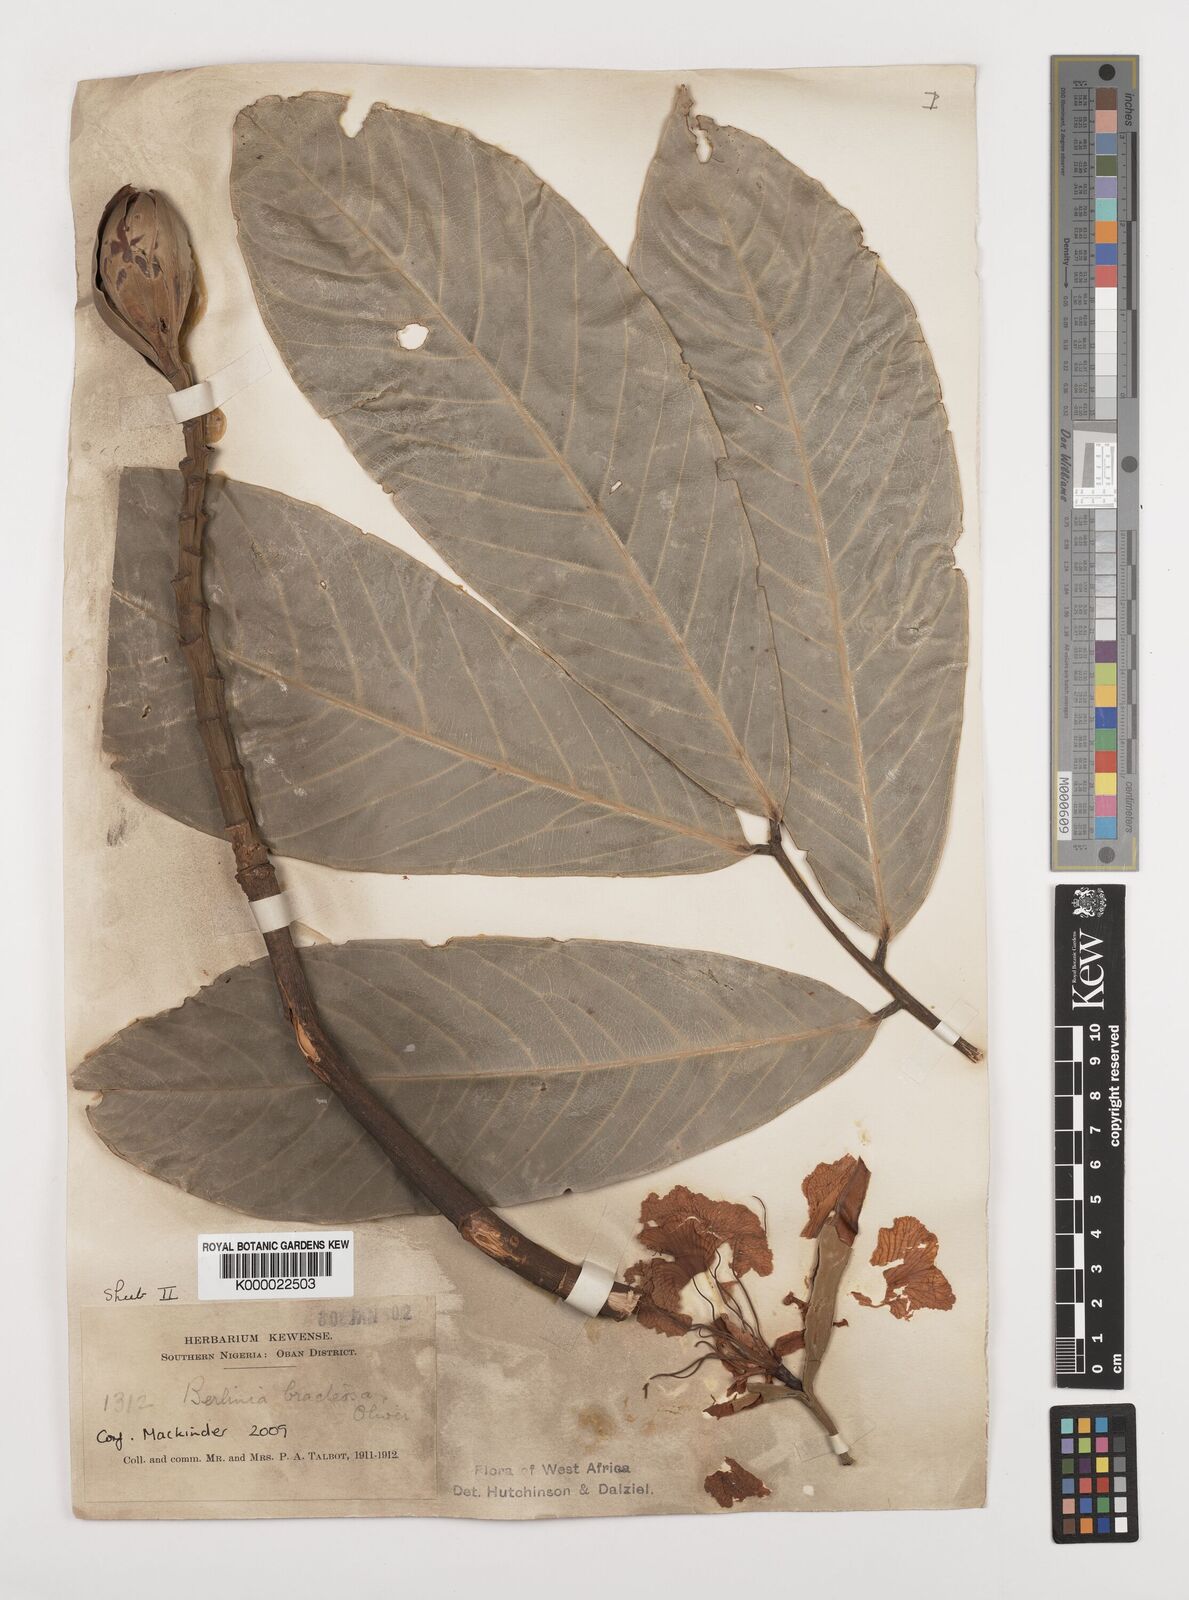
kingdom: Plantae
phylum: Tracheophyta
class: Magnoliopsida
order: Fabales
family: Fabaceae
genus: Berlinia
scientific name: Berlinia bracteosa
